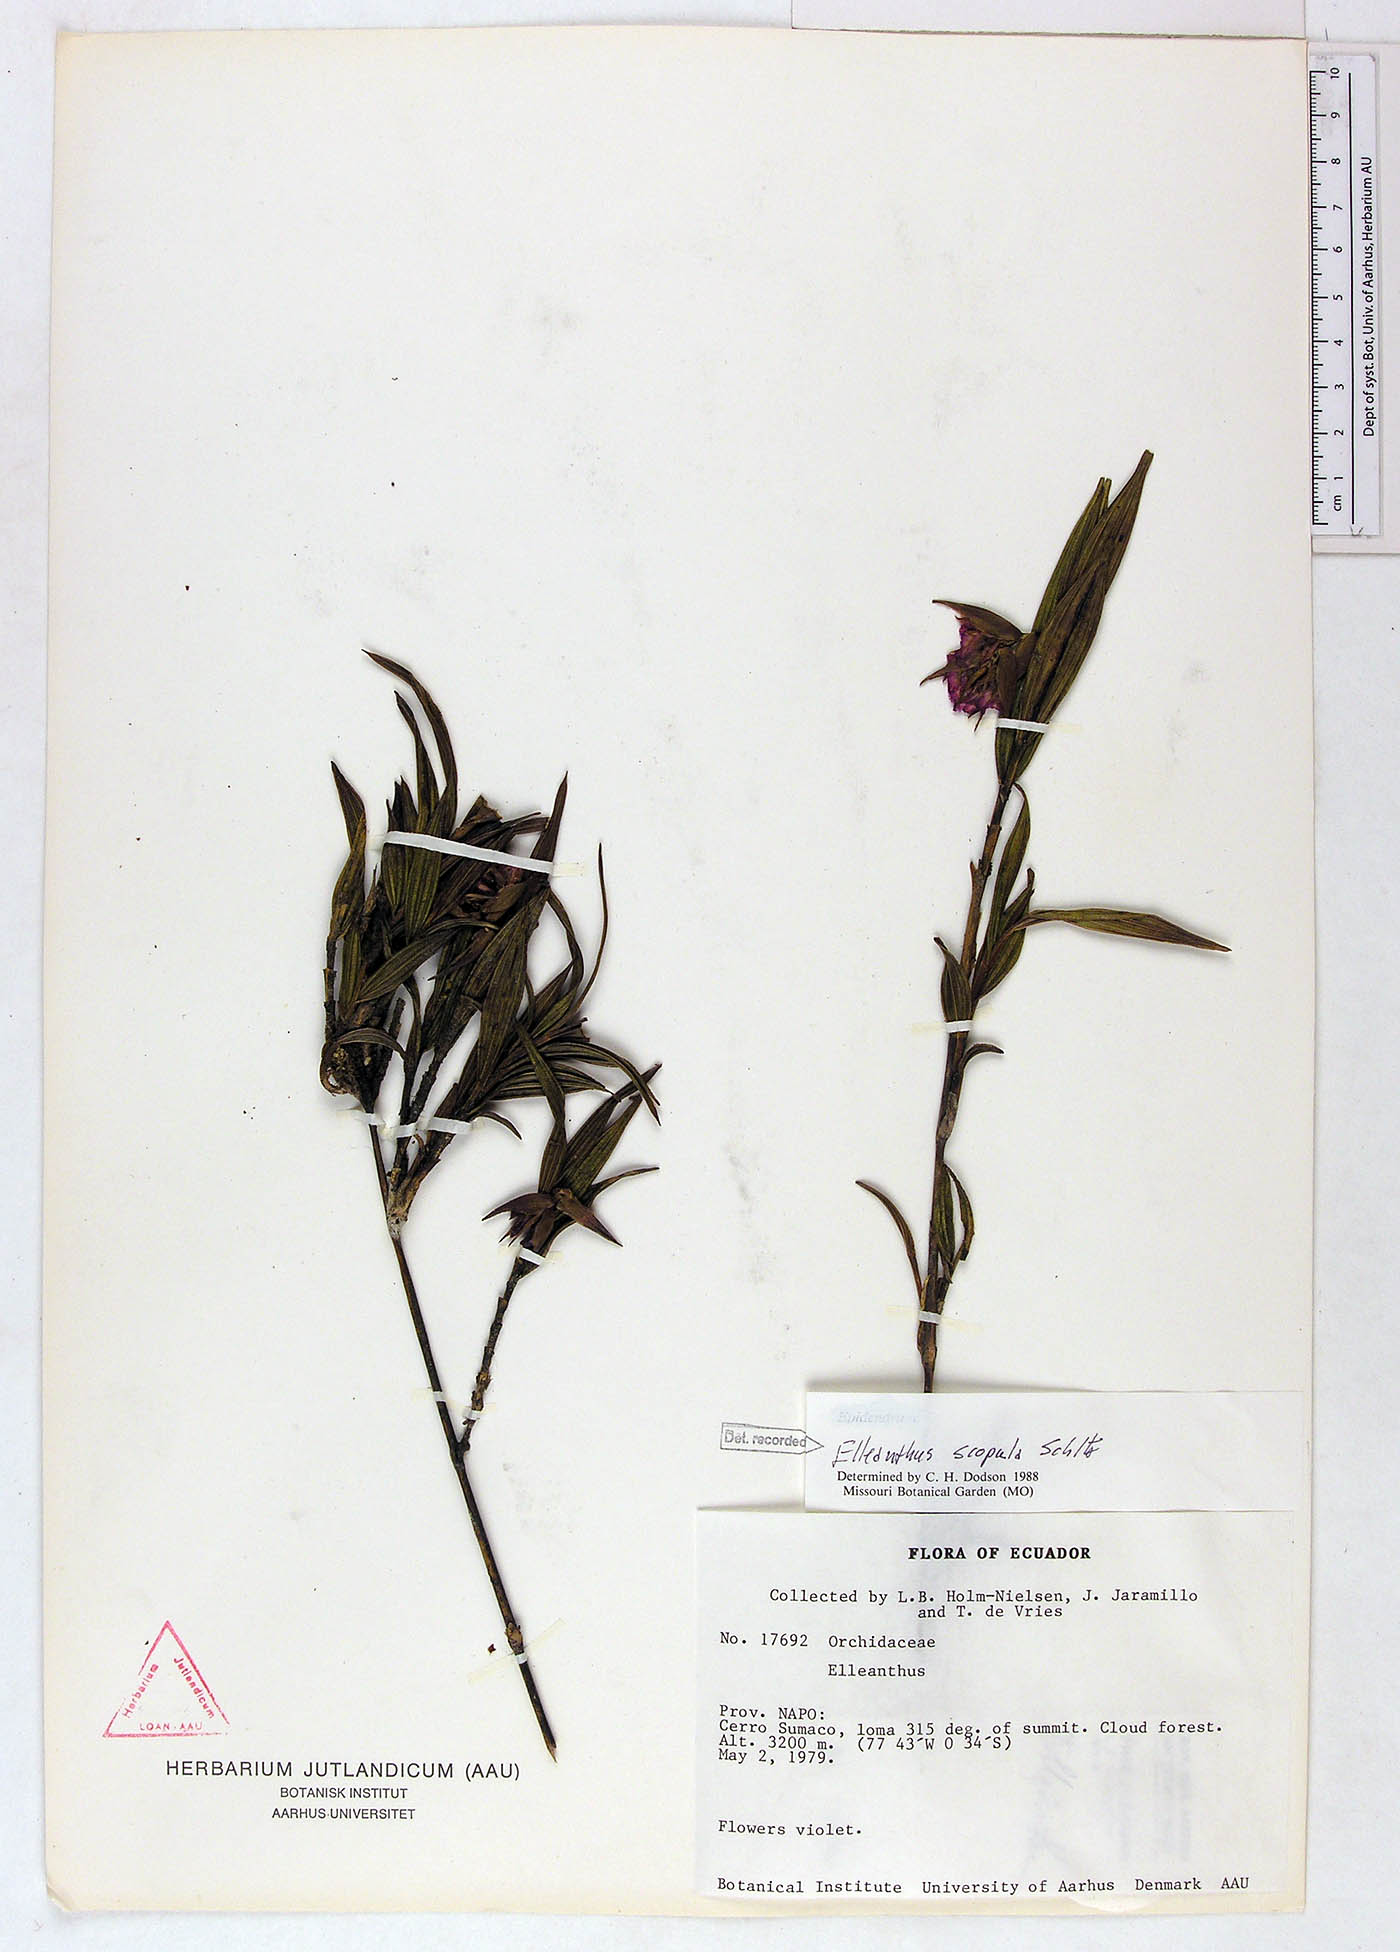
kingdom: Plantae
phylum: Tracheophyta
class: Liliopsida
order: Asparagales
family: Orchidaceae
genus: Elleanthus
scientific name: Elleanthus scopula
